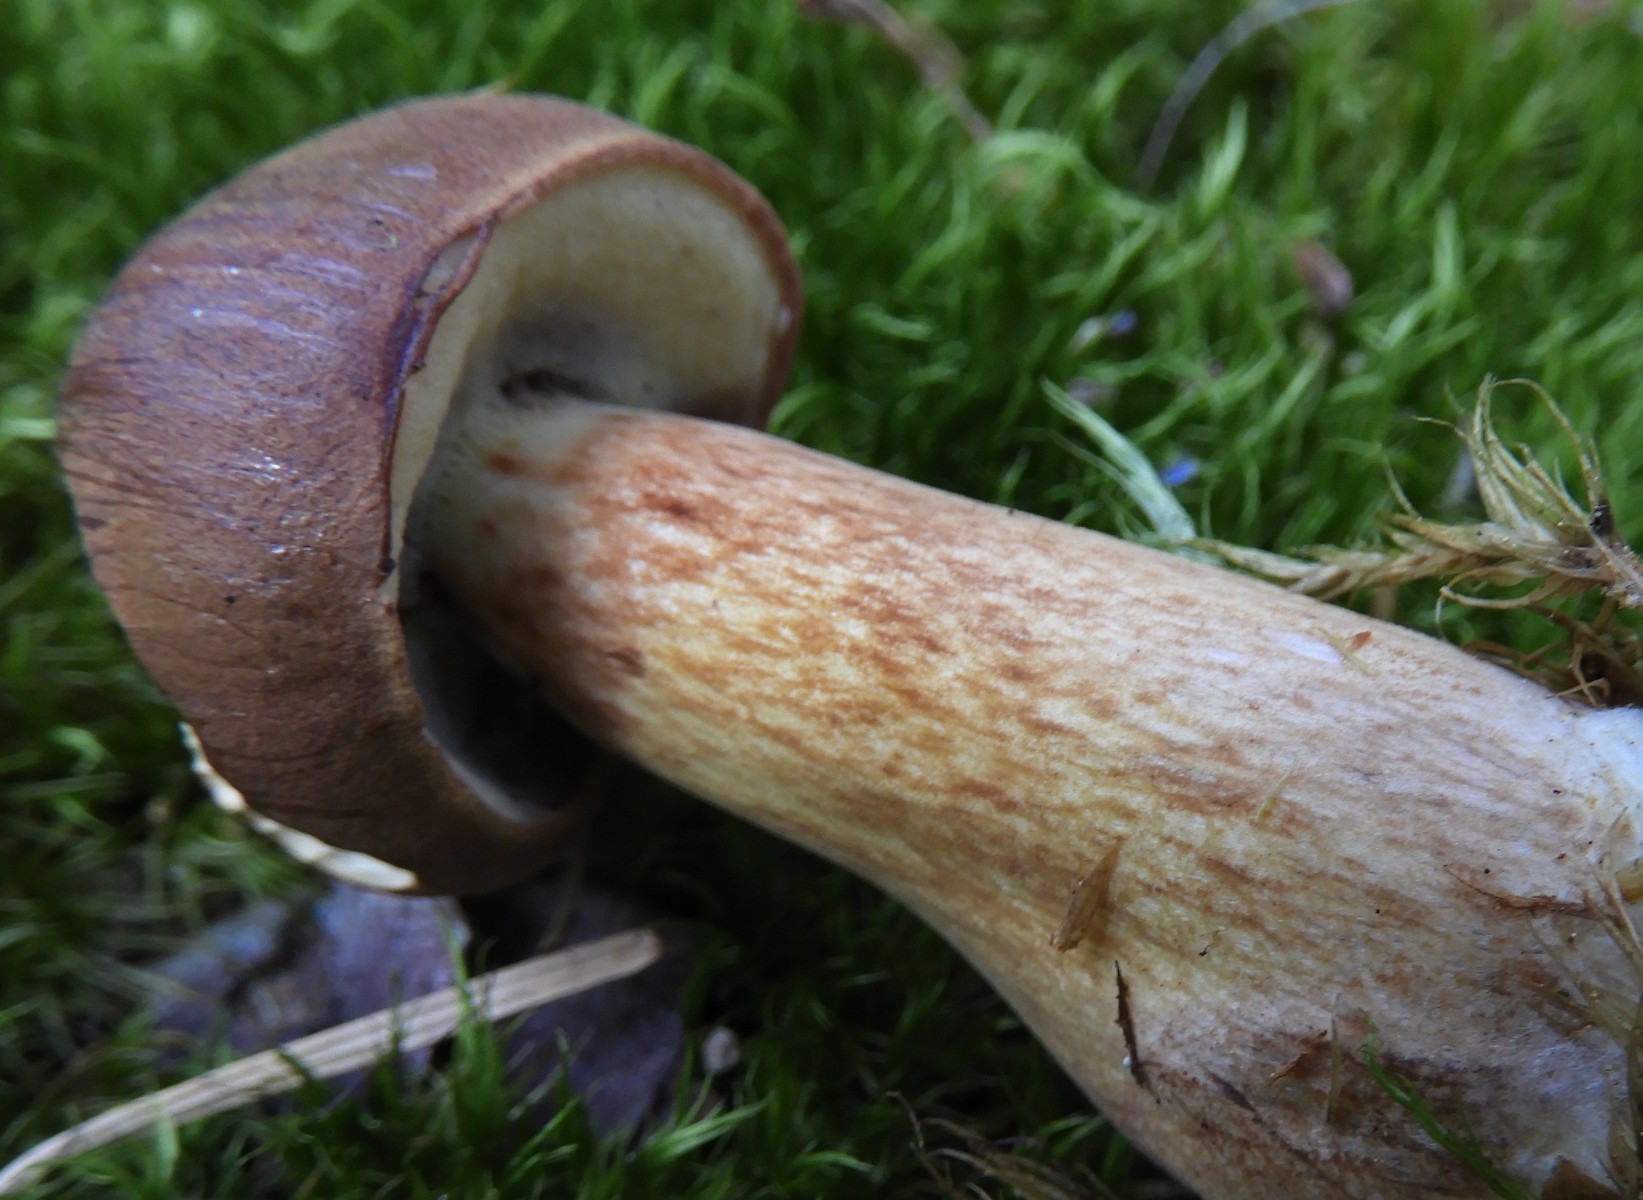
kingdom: Fungi
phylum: Basidiomycota
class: Agaricomycetes
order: Boletales
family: Boletaceae
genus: Imleria
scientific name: Imleria badia
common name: brunstokket rørhat
